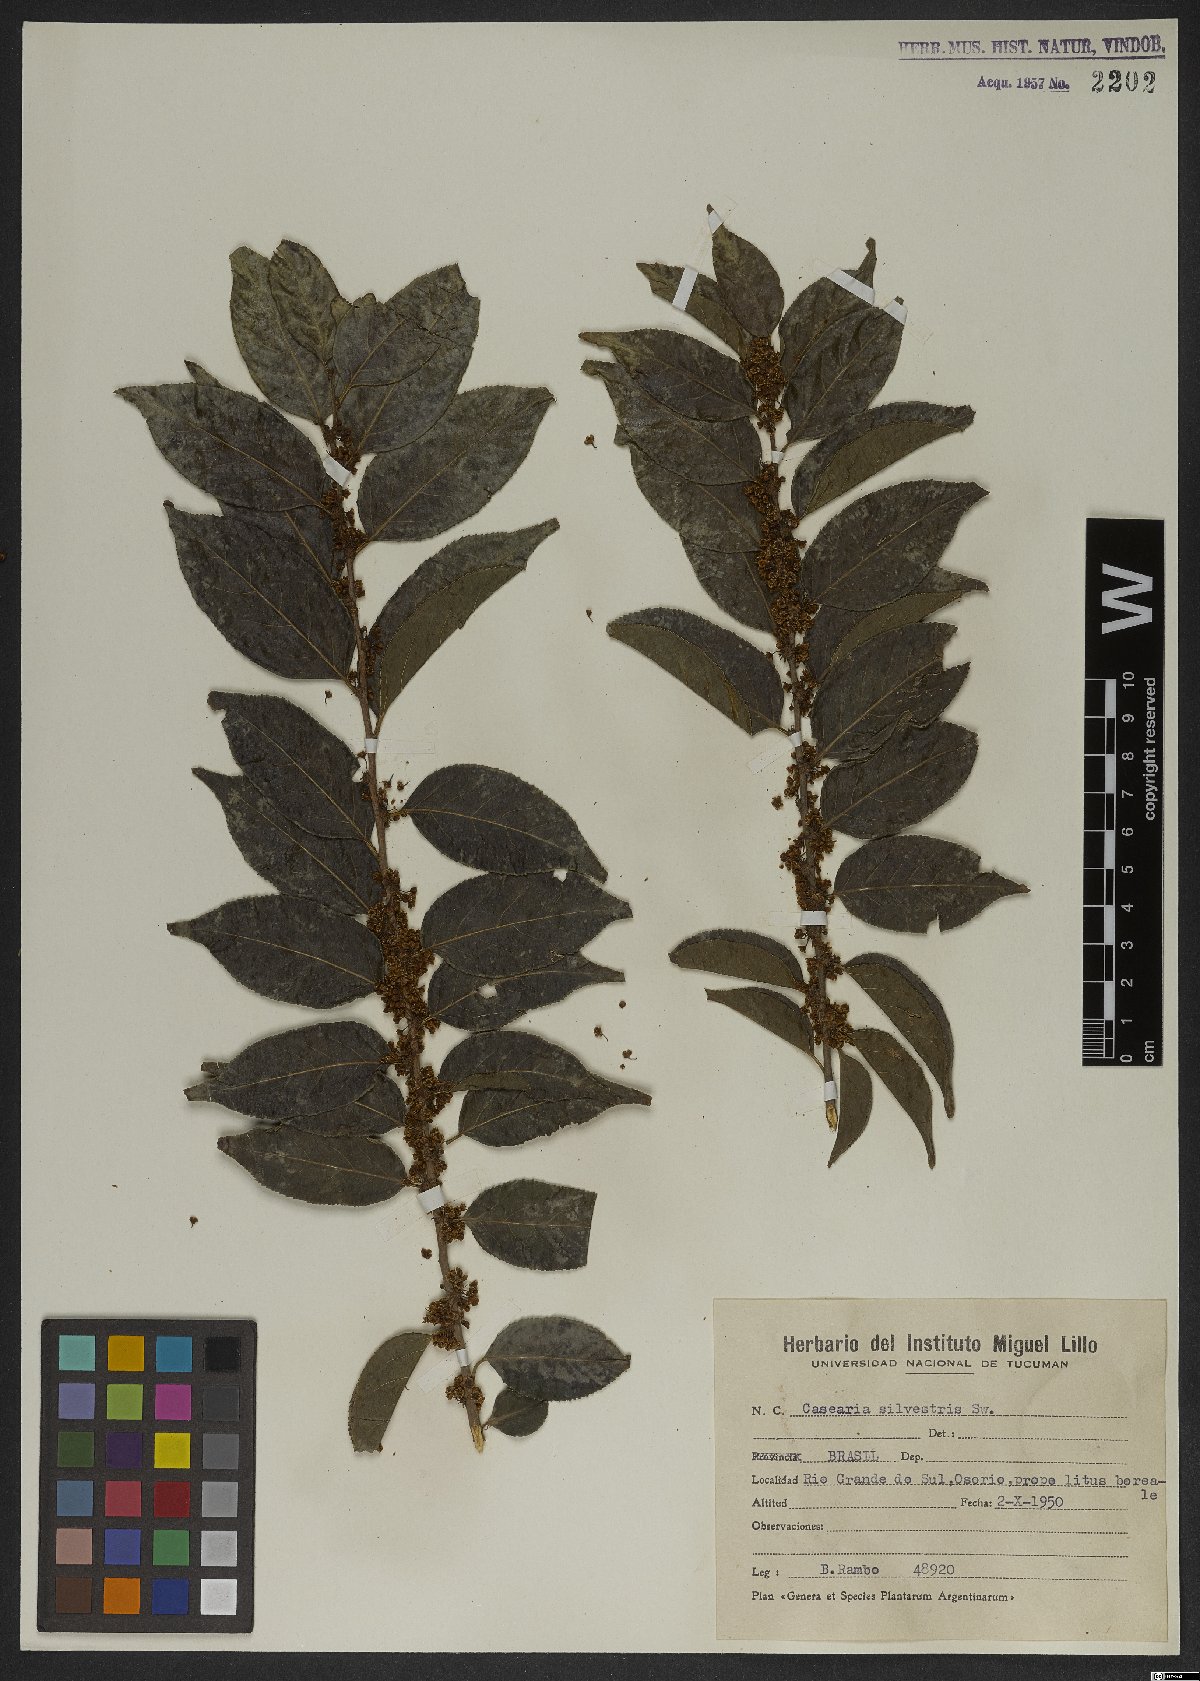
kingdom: Plantae
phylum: Tracheophyta
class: Magnoliopsida
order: Malpighiales
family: Salicaceae
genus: Casearia
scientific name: Casearia sylvestris
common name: Wild sage
